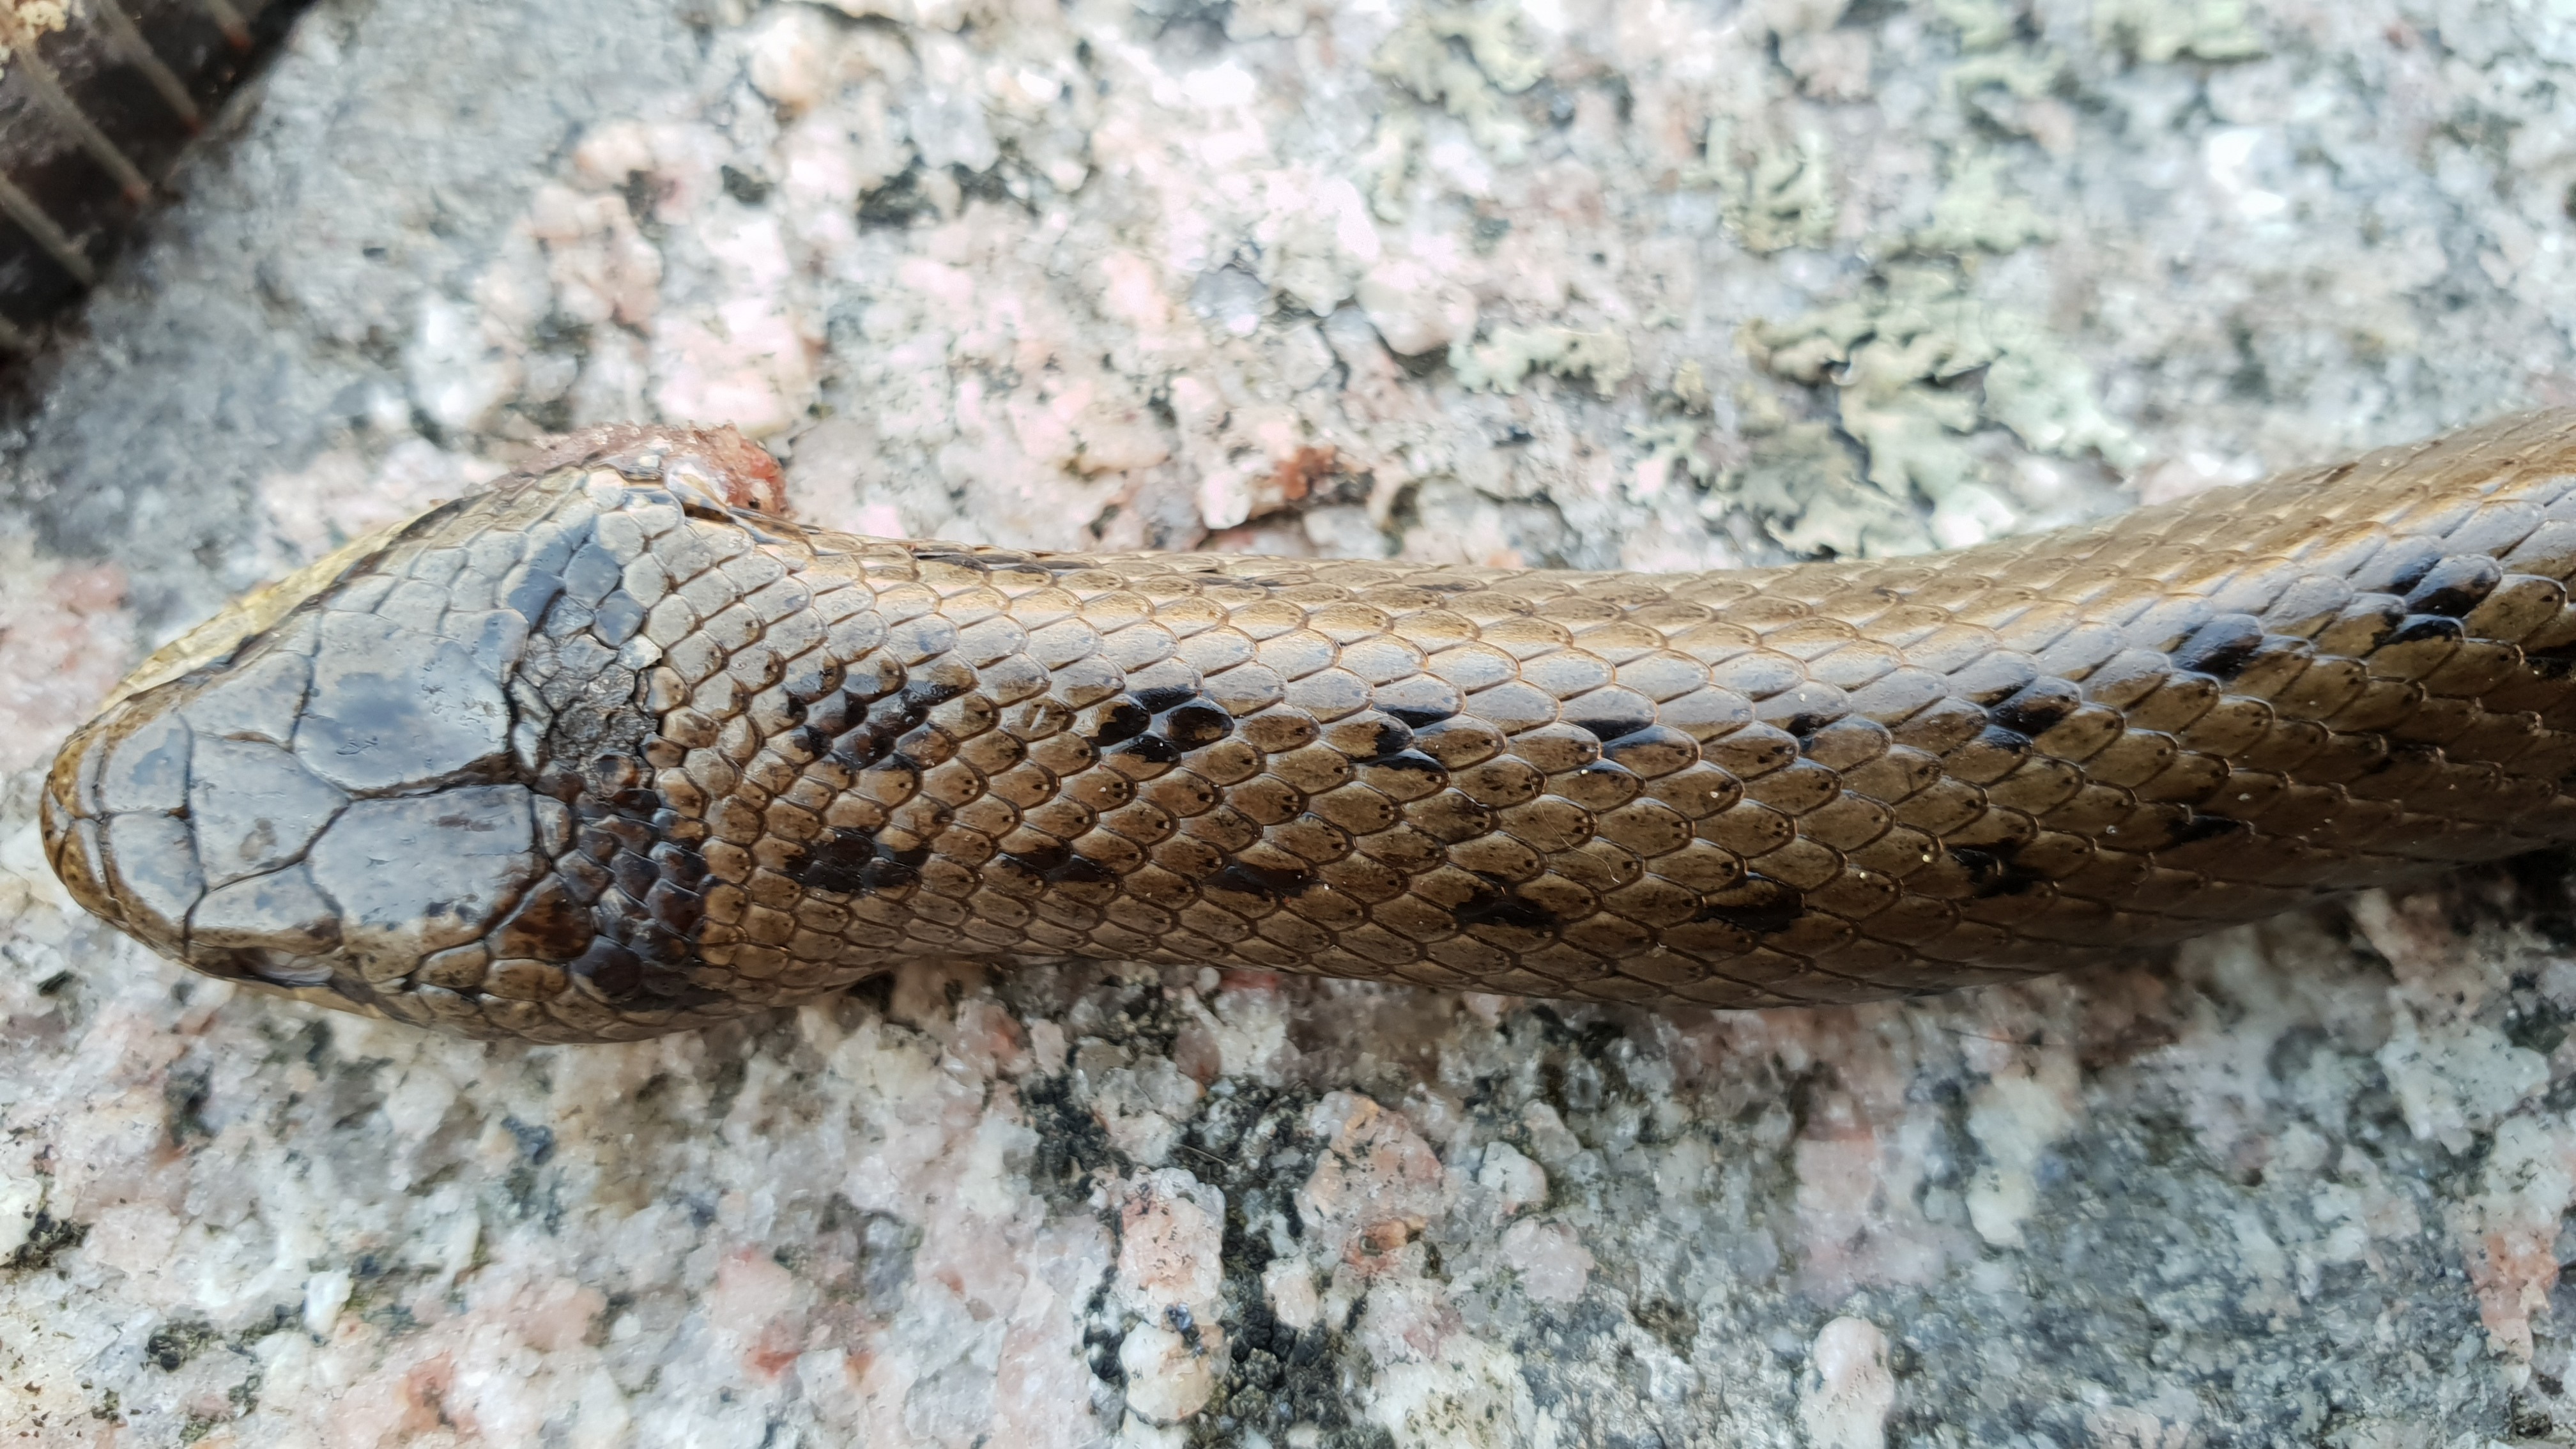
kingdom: Animalia
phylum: Chordata
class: Squamata
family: Colubridae
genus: Coronella
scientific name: Coronella austriaca
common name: Smooth snake
